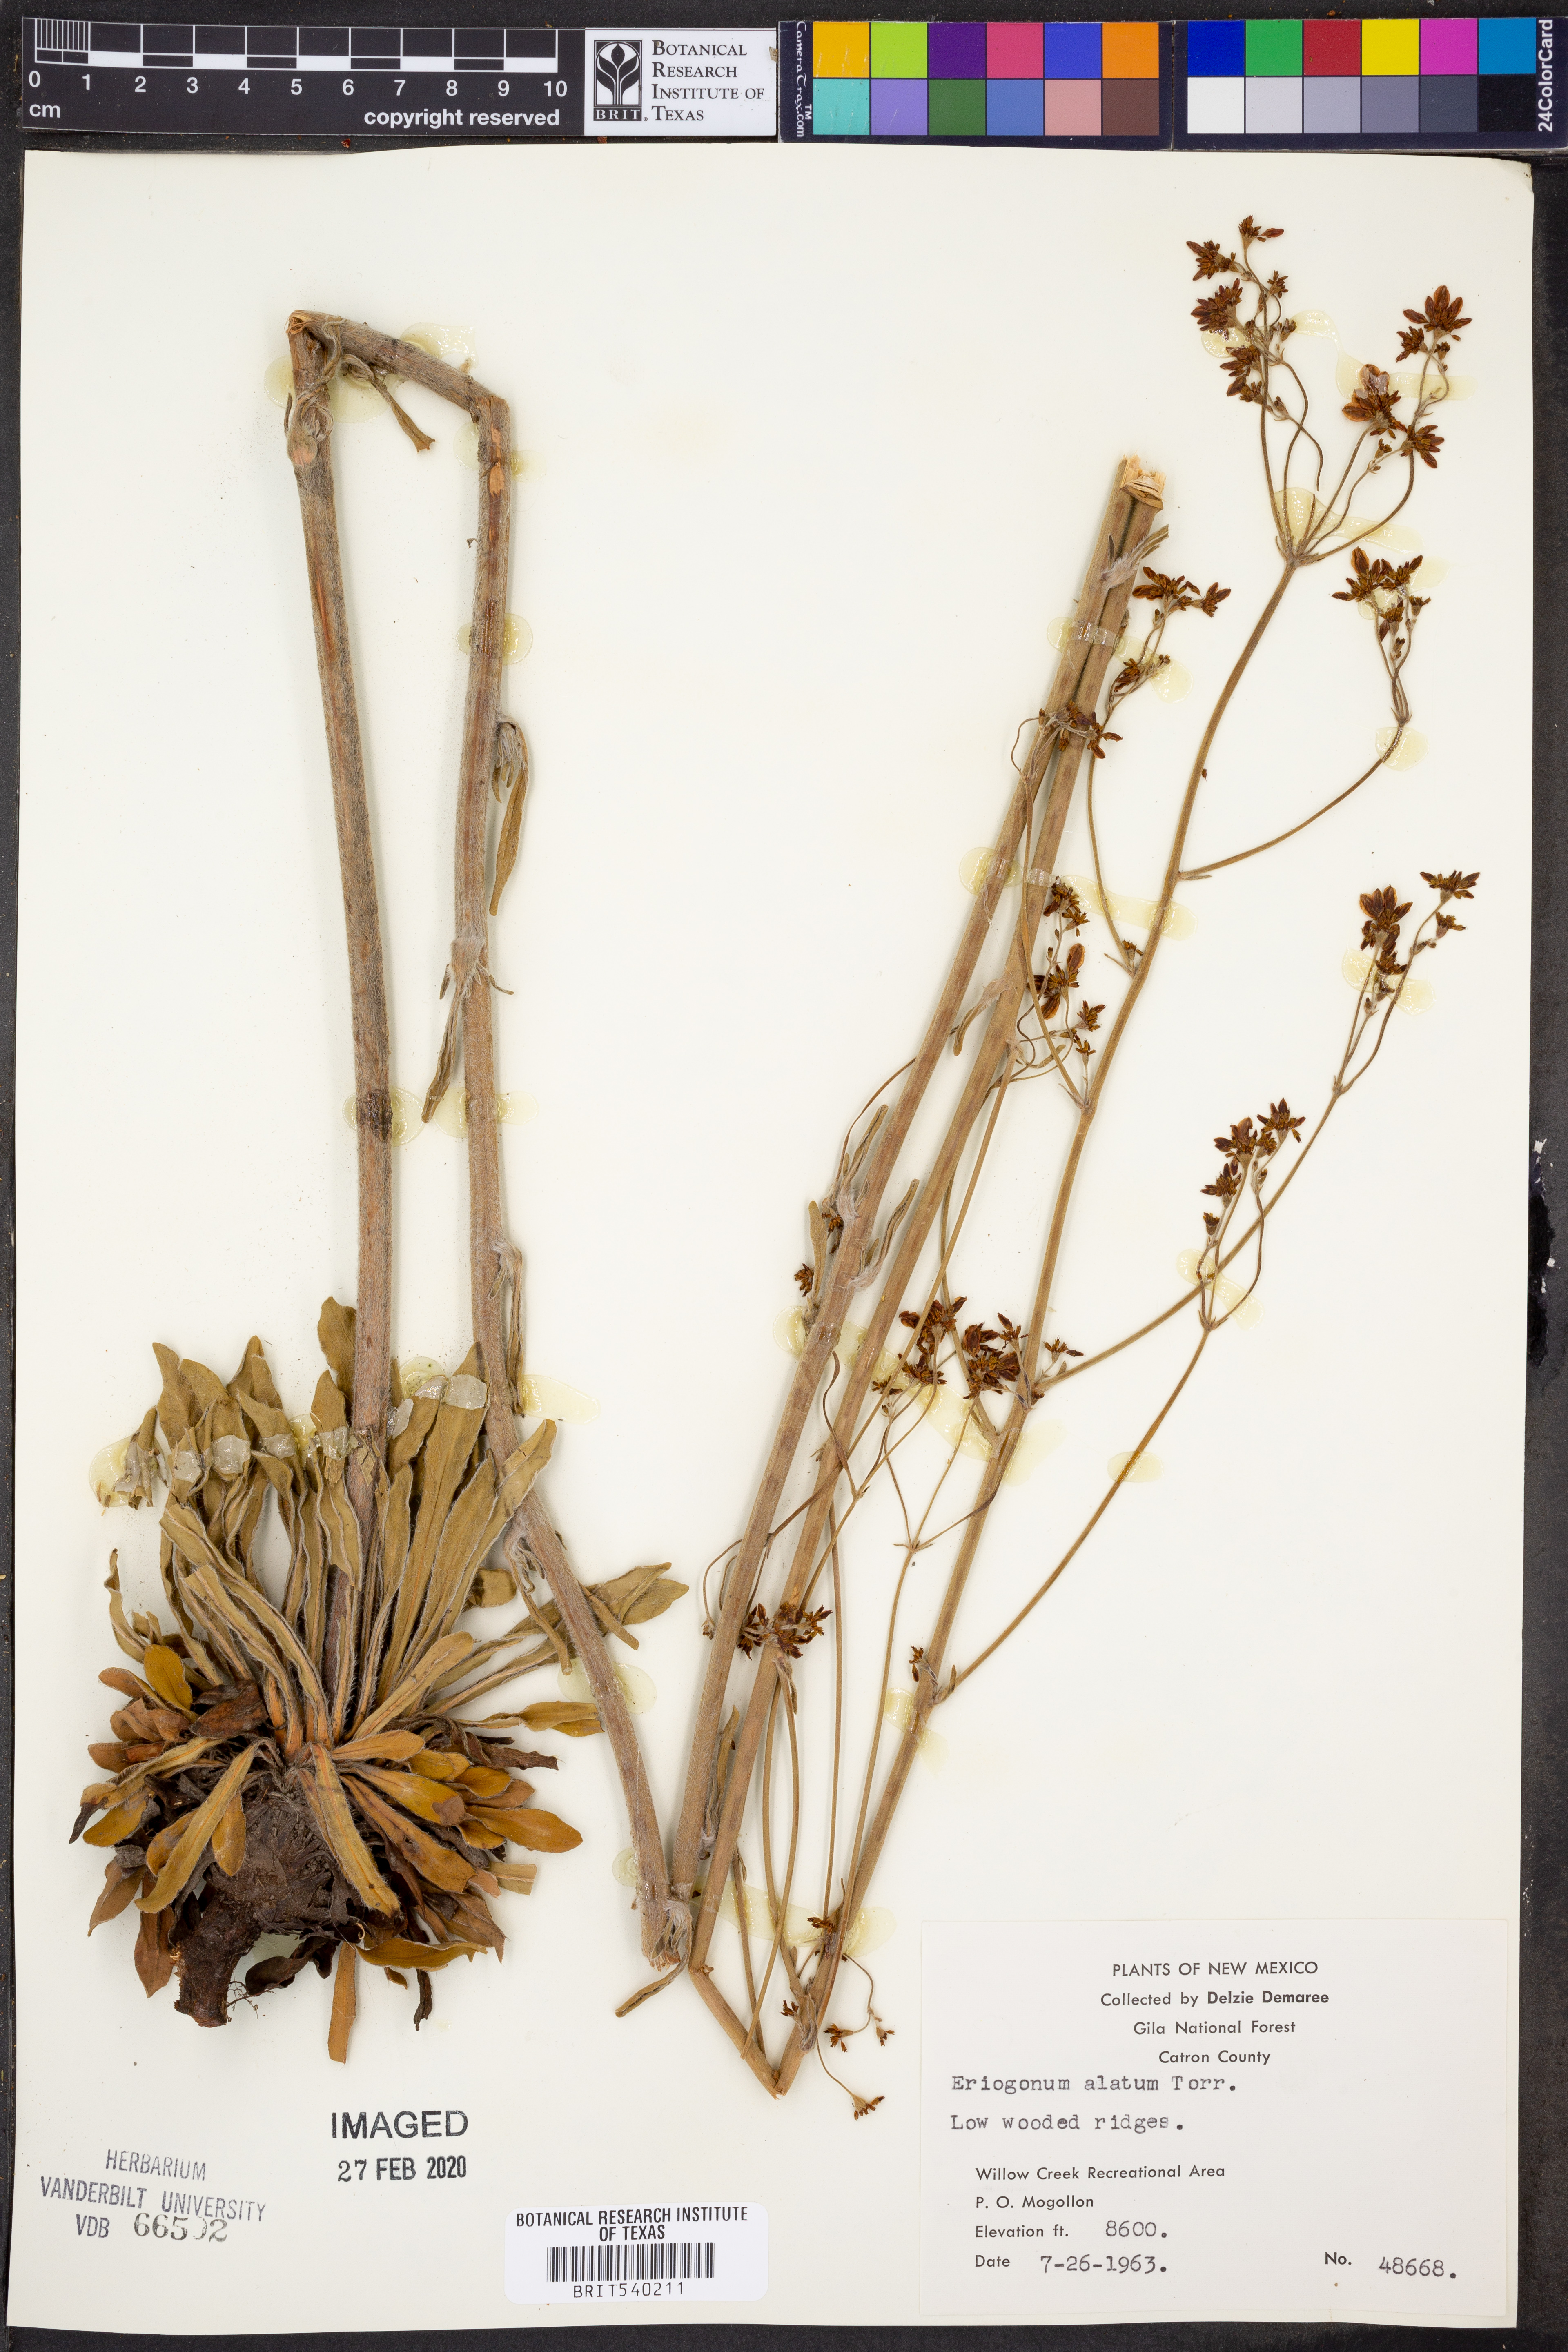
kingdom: Plantae
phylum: Tracheophyta
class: Magnoliopsida
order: Caryophyllales
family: Polygonaceae
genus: Eriogonum
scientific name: Eriogonum alatum
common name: Winged eriogonum
